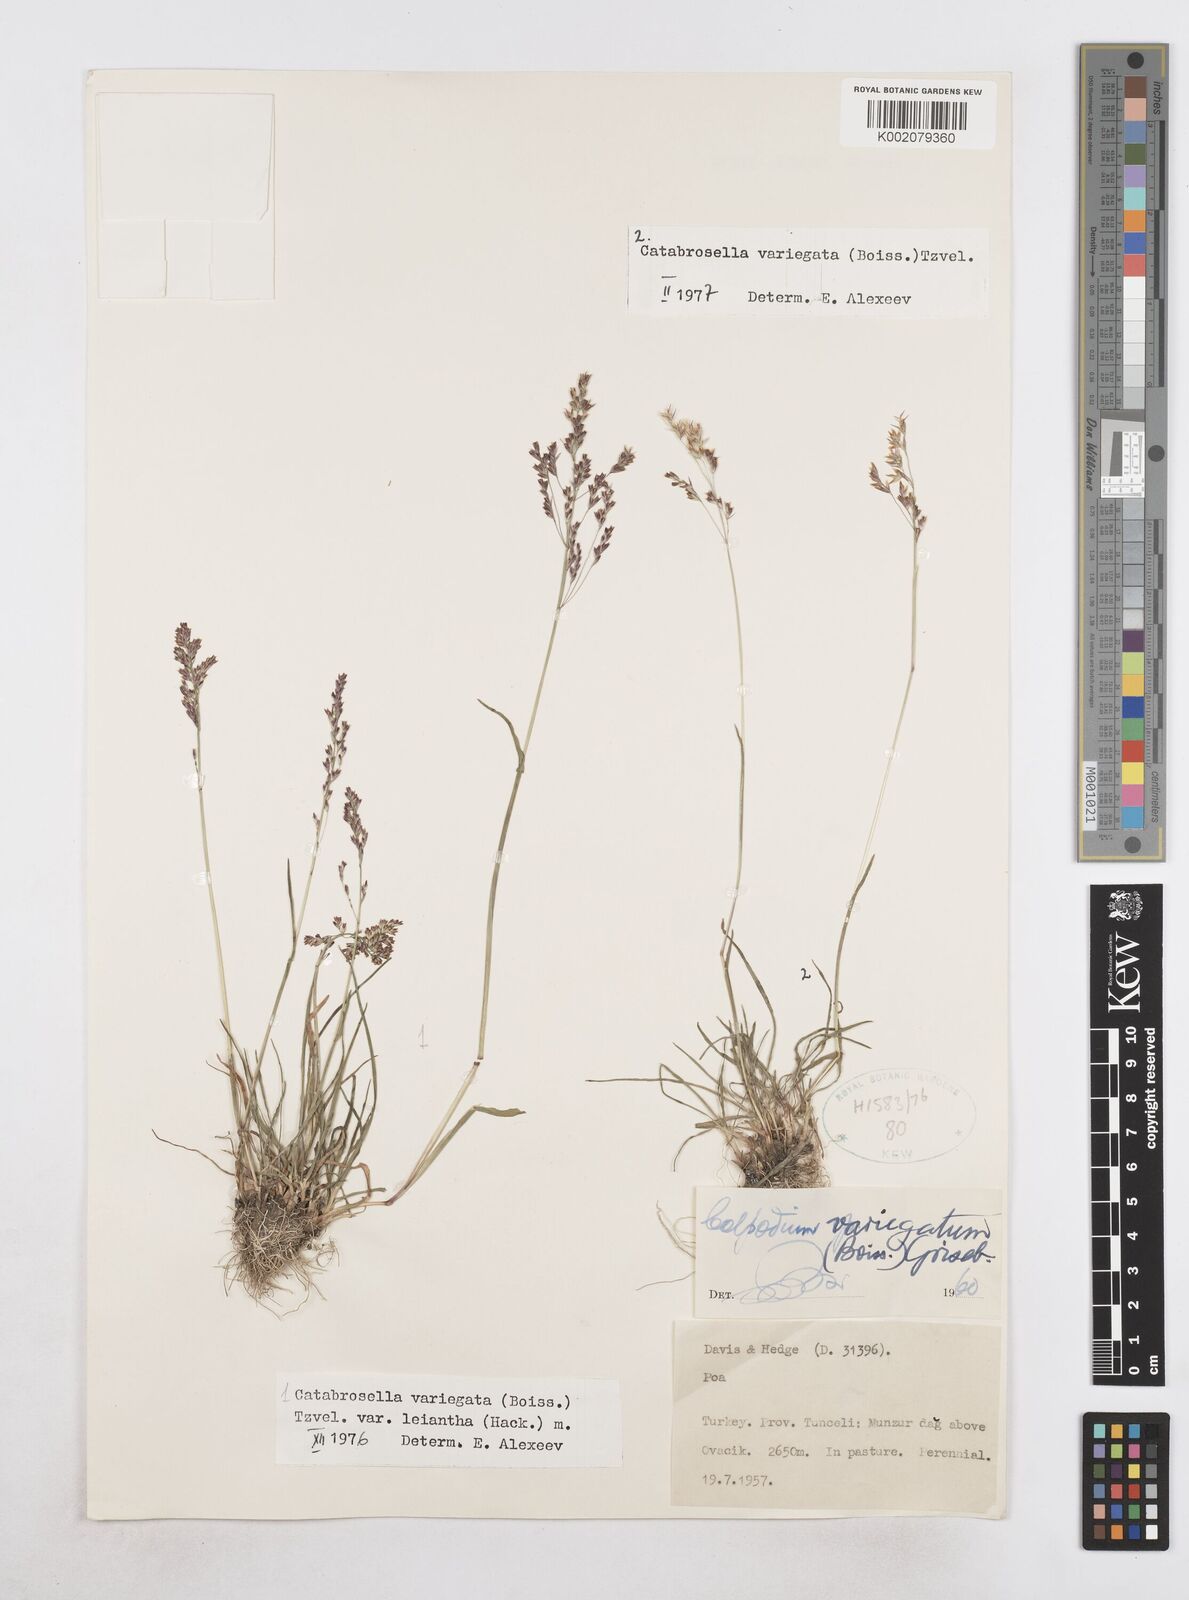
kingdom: Plantae
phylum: Tracheophyta
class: Liliopsida
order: Poales
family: Poaceae
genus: Catabrosella
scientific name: Catabrosella variegata
